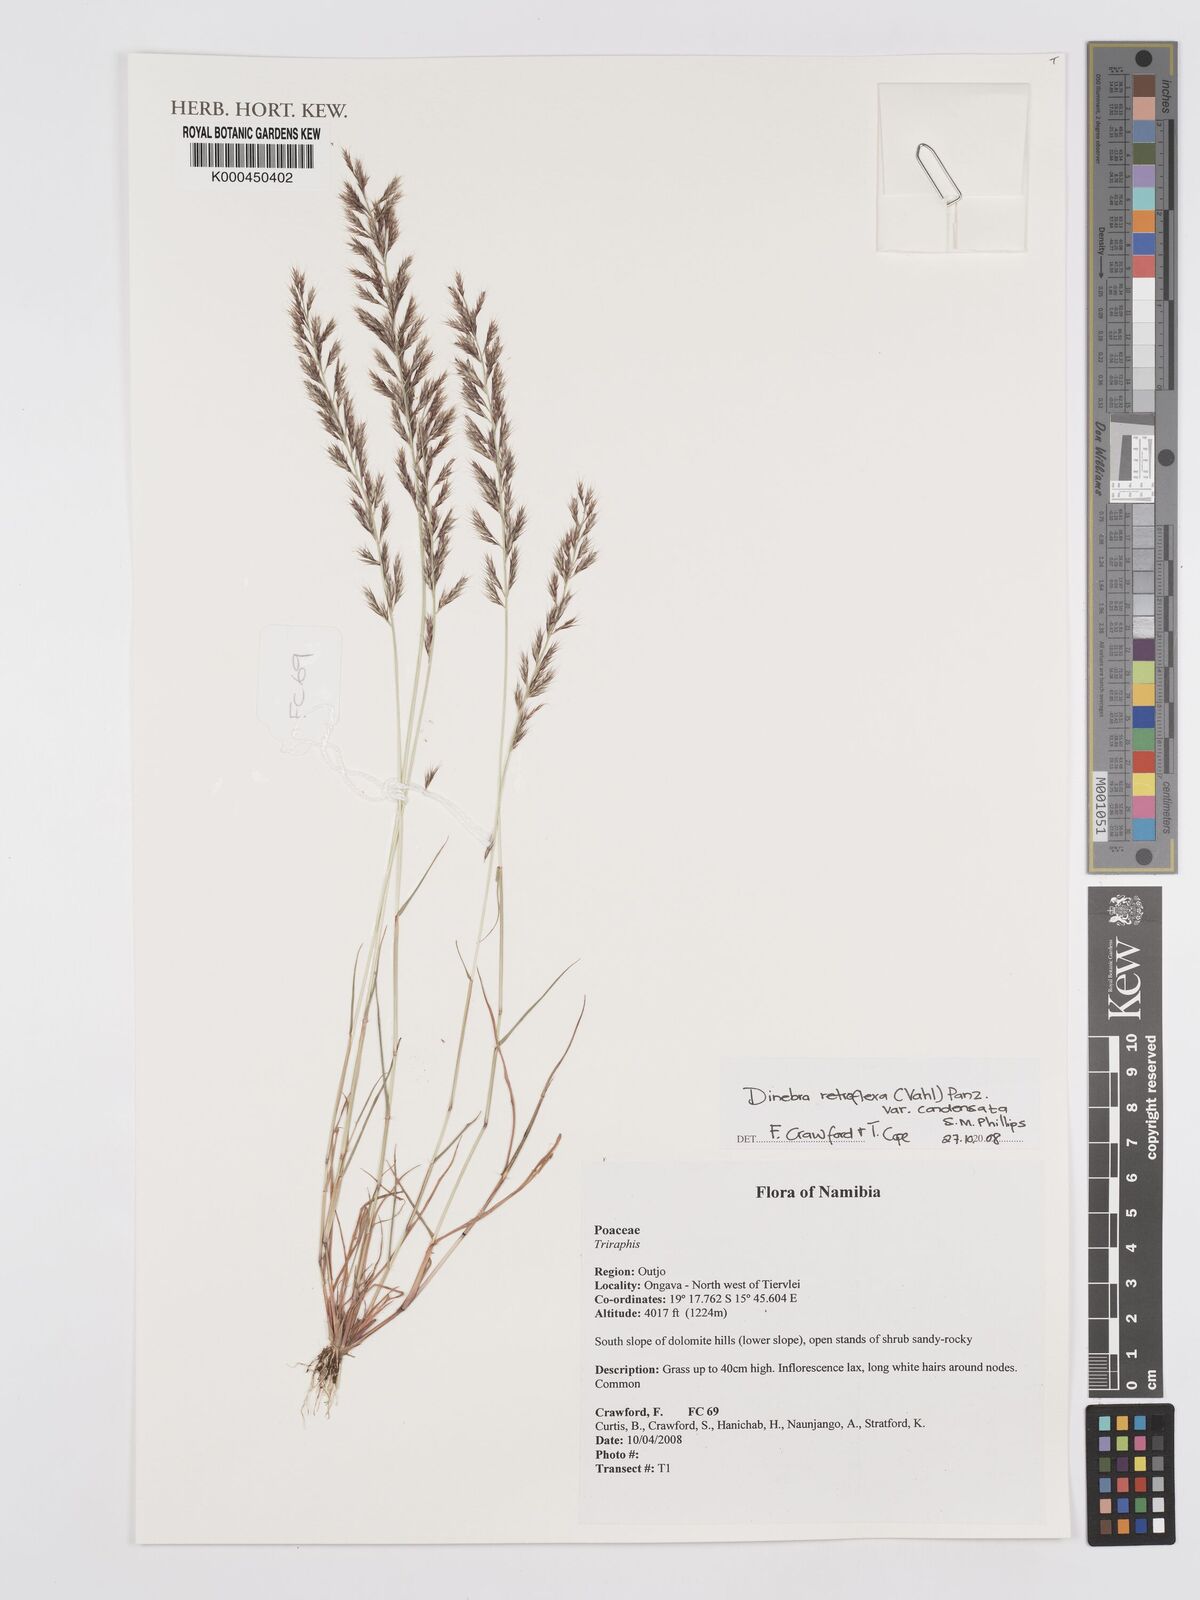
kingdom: Plantae
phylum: Tracheophyta
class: Liliopsida
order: Poales
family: Poaceae
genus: Dinebra
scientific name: Dinebra retroflexa
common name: Viper grass
